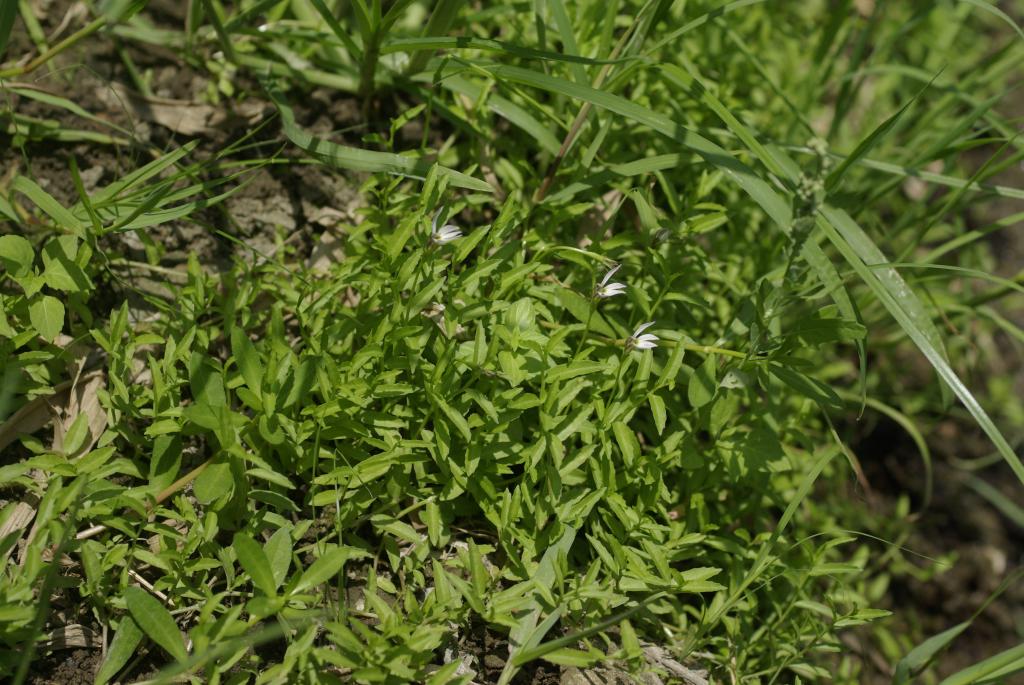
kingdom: Plantae
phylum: Tracheophyta
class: Magnoliopsida
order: Asterales
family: Campanulaceae
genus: Lobelia
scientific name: Lobelia chinensis
